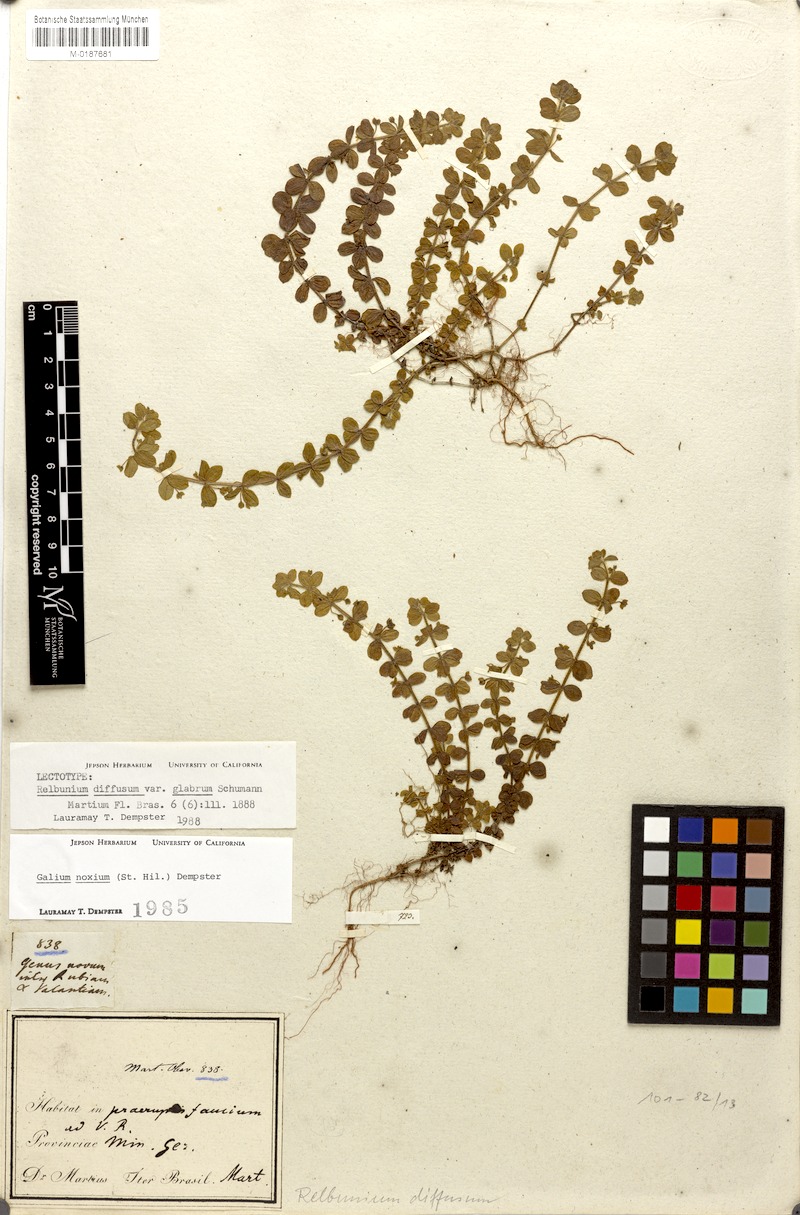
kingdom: Plantae
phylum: Tracheophyta
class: Magnoliopsida
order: Gentianales
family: Rubiaceae
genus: Galium
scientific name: Galium noxium
